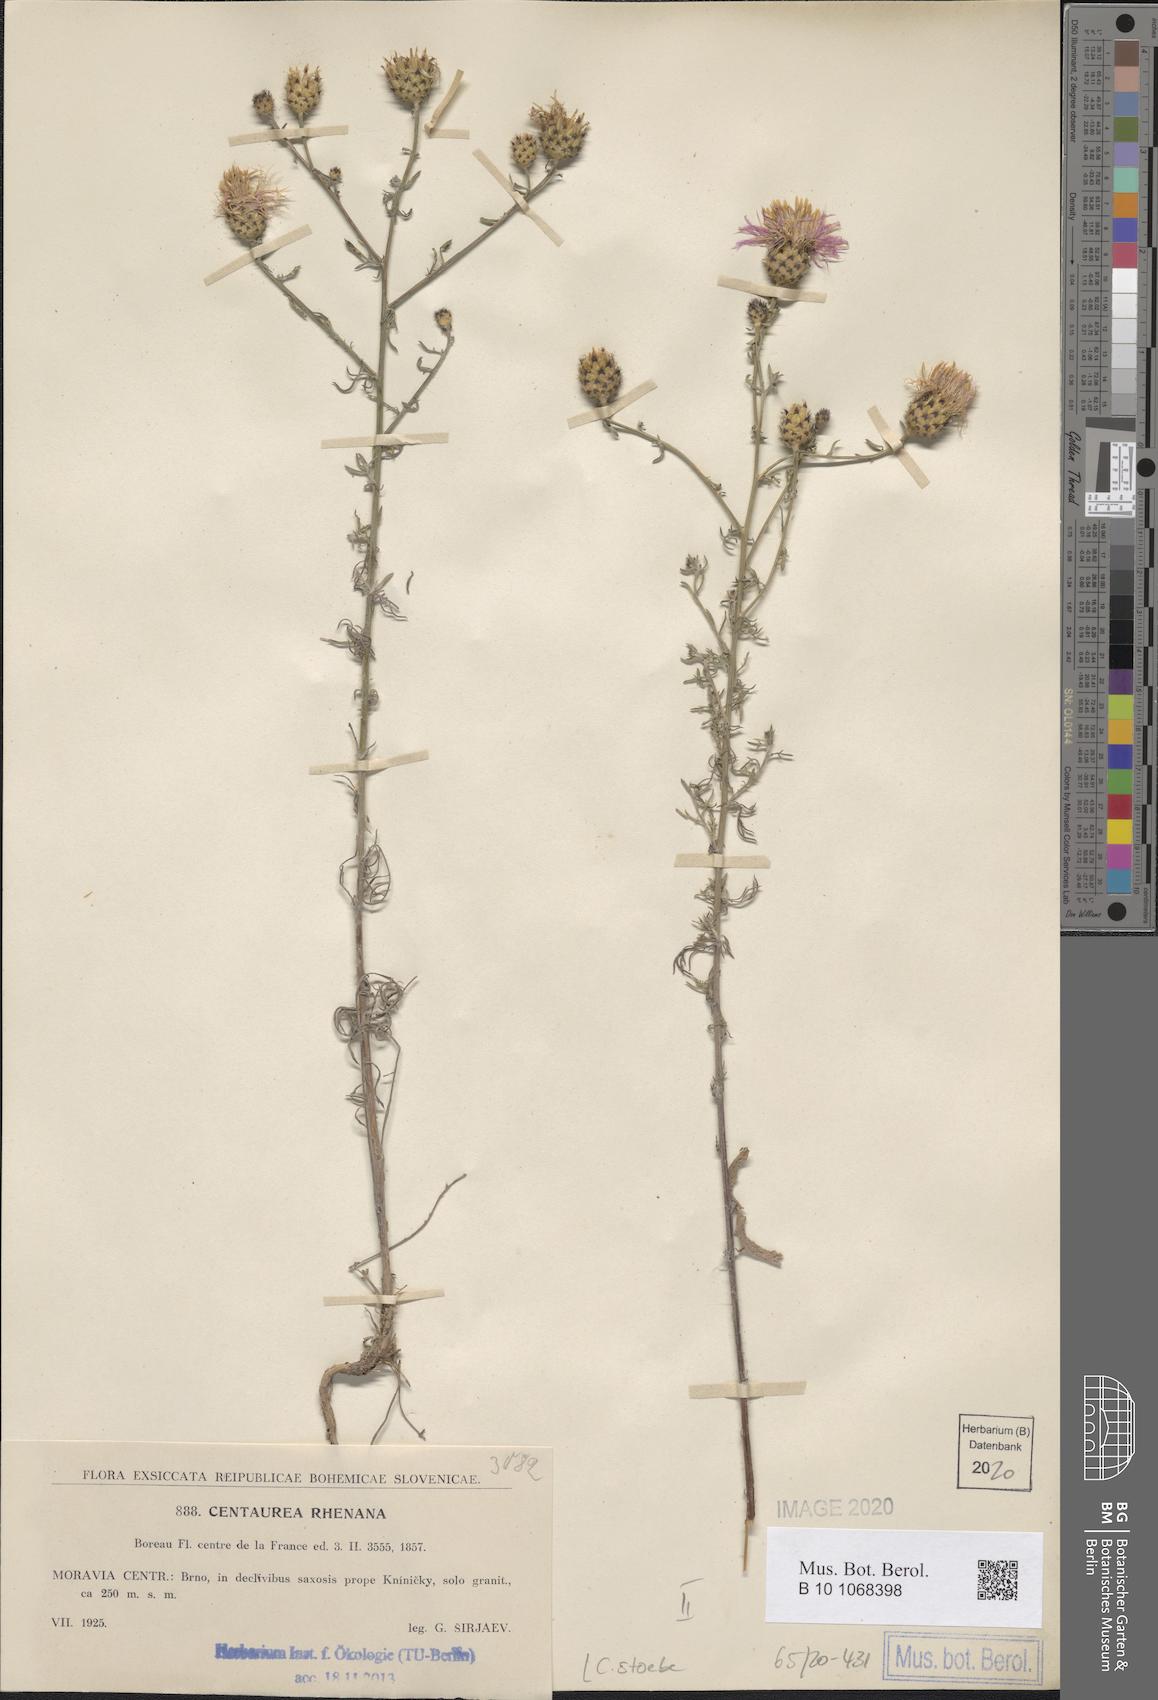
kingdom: Plantae
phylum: Tracheophyta
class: Magnoliopsida
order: Asterales
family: Asteraceae
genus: Centaurea
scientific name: Centaurea stoebe
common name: Spotted knapweed
